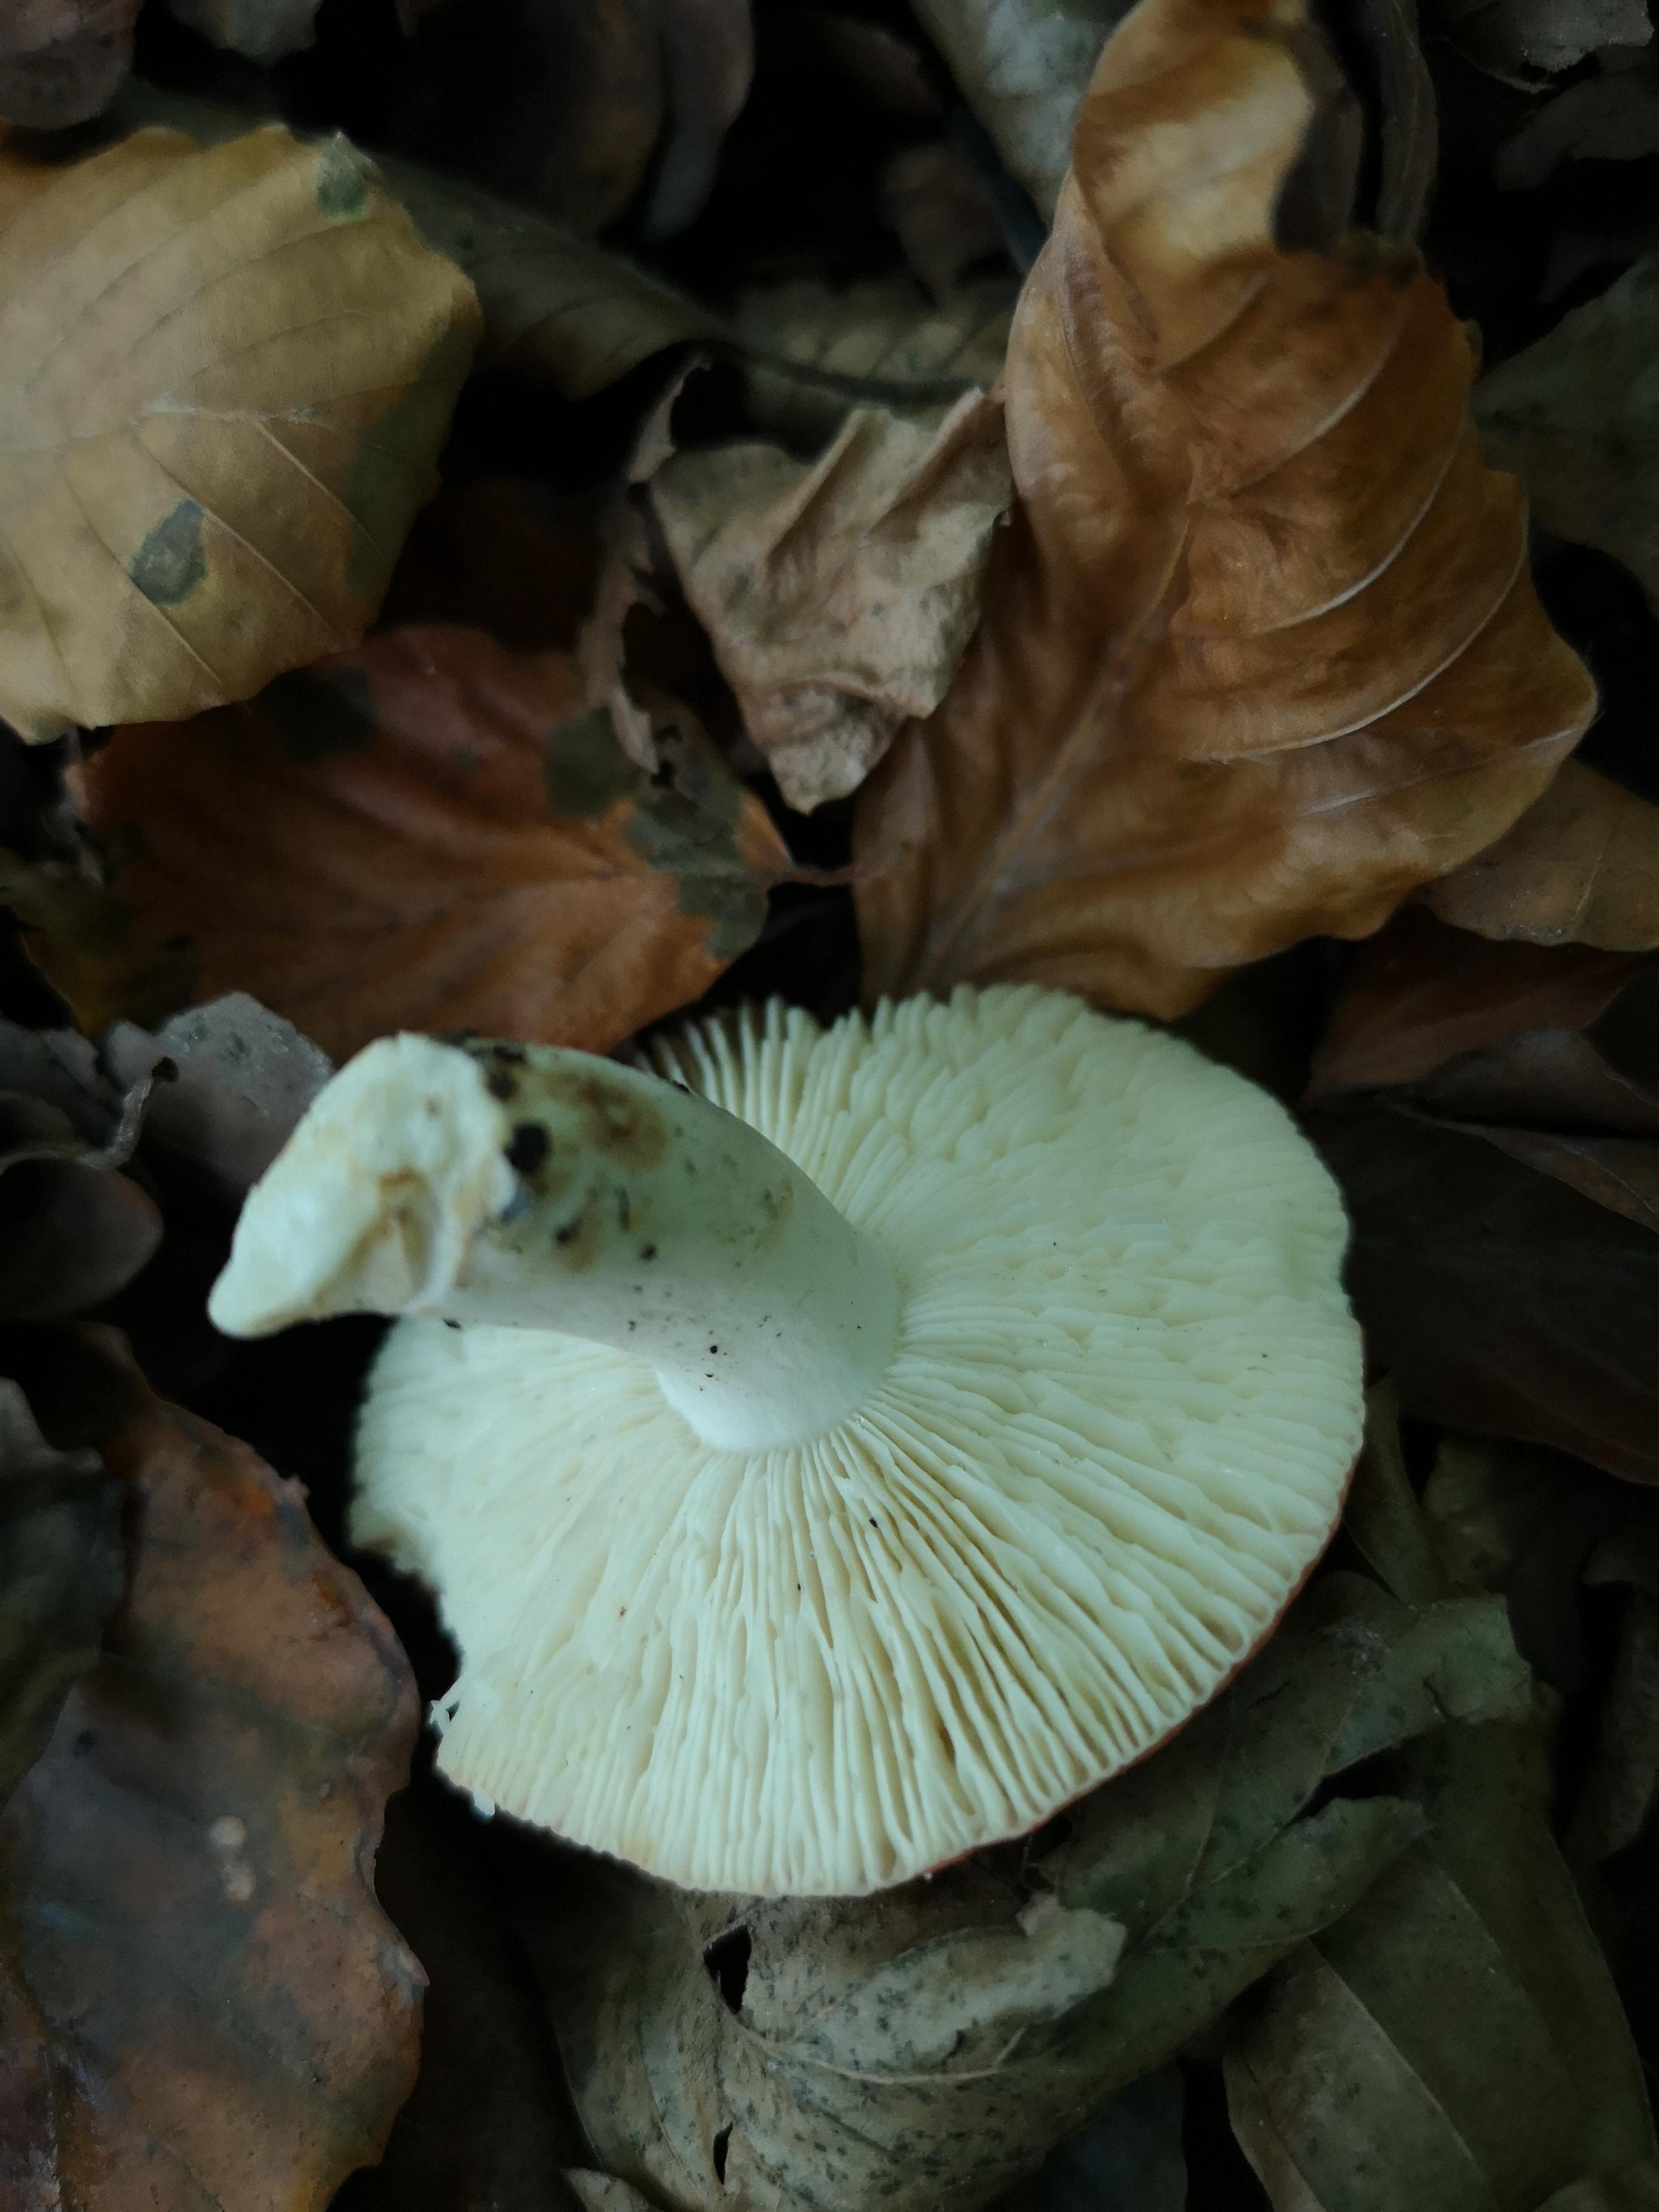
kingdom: Fungi
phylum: Basidiomycota
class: Agaricomycetes
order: Russulales
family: Russulaceae
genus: Russula
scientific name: Russula
